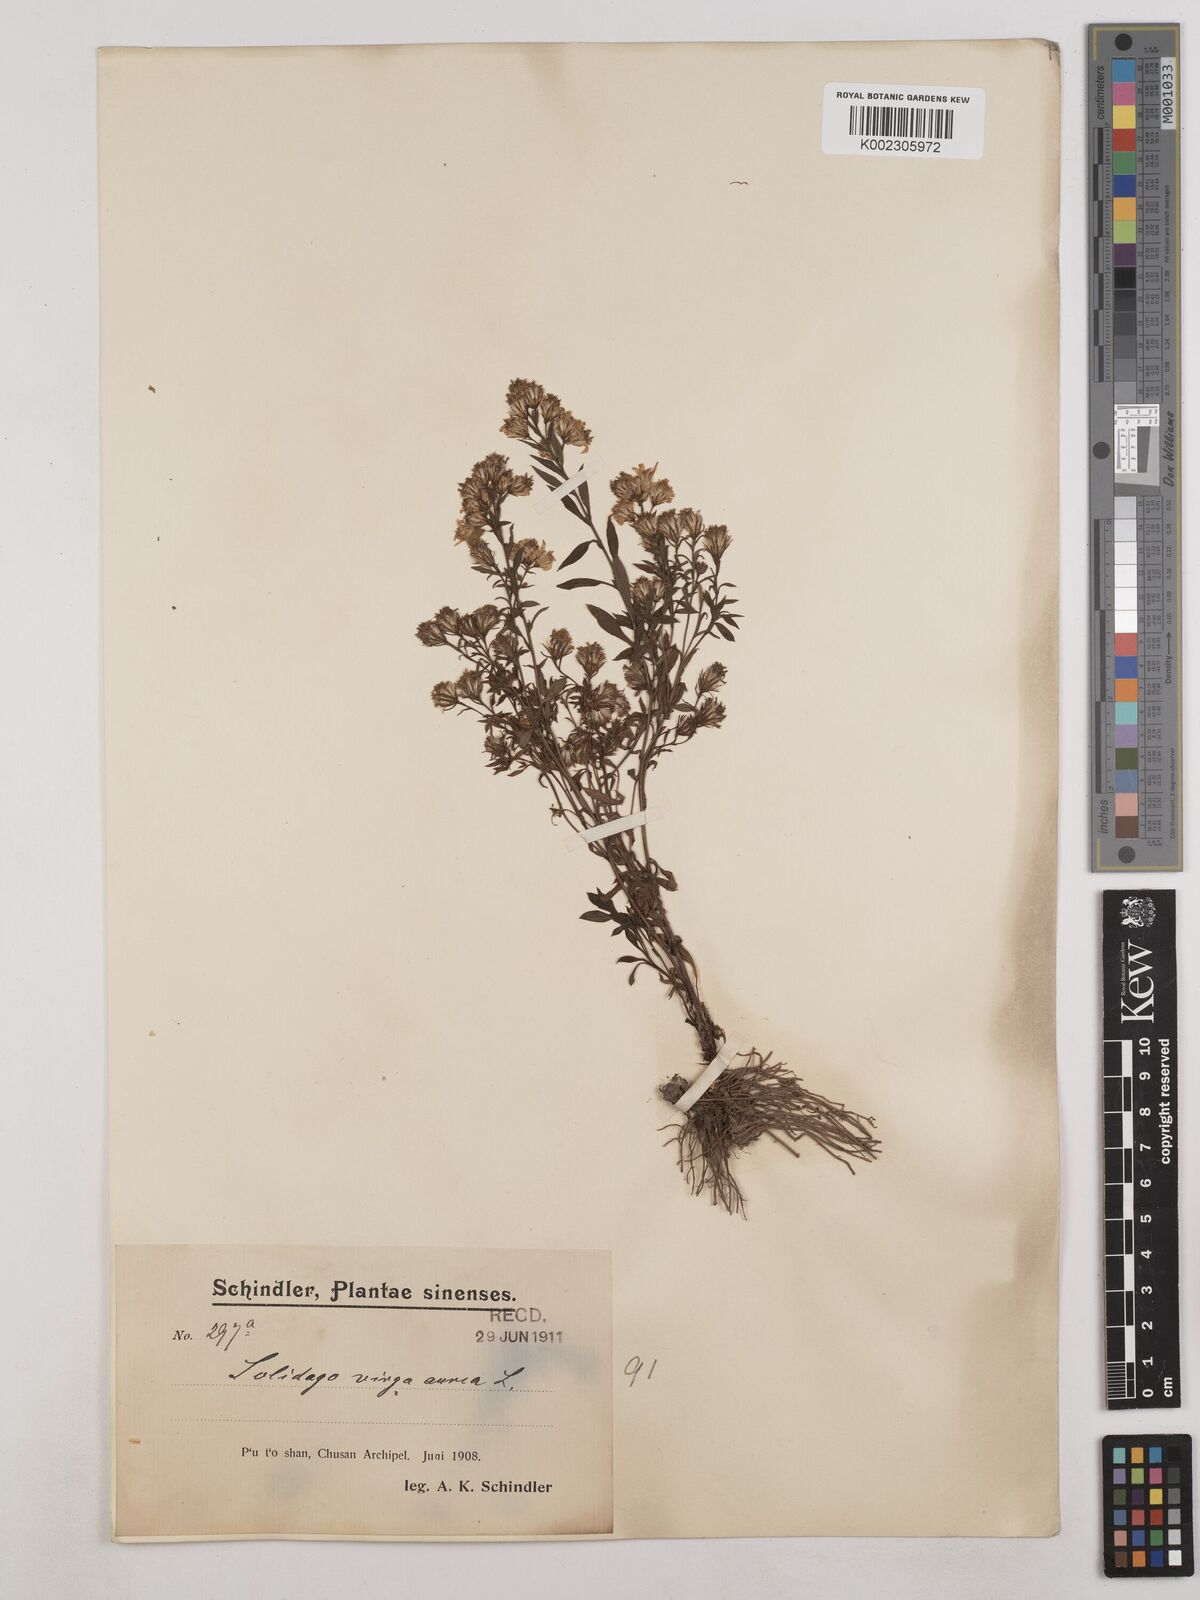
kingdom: Plantae
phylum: Tracheophyta
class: Magnoliopsida
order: Asterales
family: Asteraceae
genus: Solidago
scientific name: Solidago virgaurea
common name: Goldenrod
